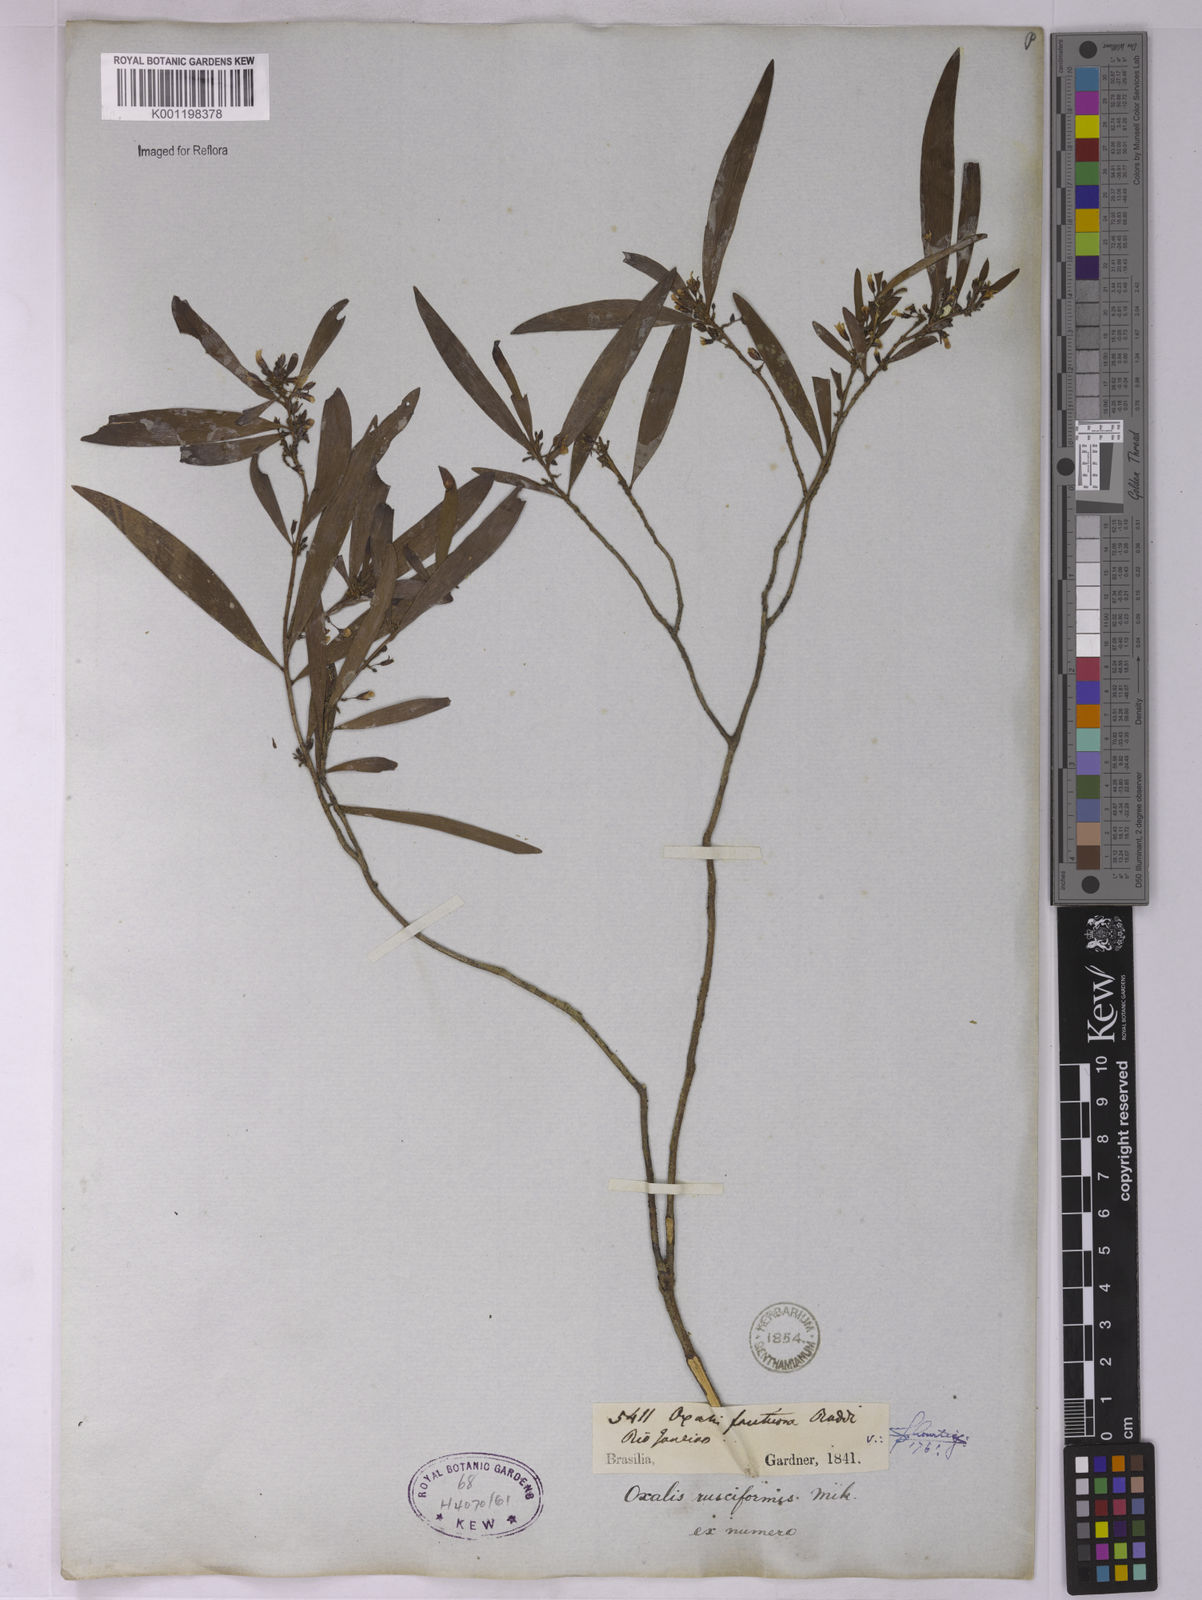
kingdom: Plantae
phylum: Tracheophyta
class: Magnoliopsida
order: Oxalidales
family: Oxalidaceae
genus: Oxalis
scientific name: Oxalis fruticosa
